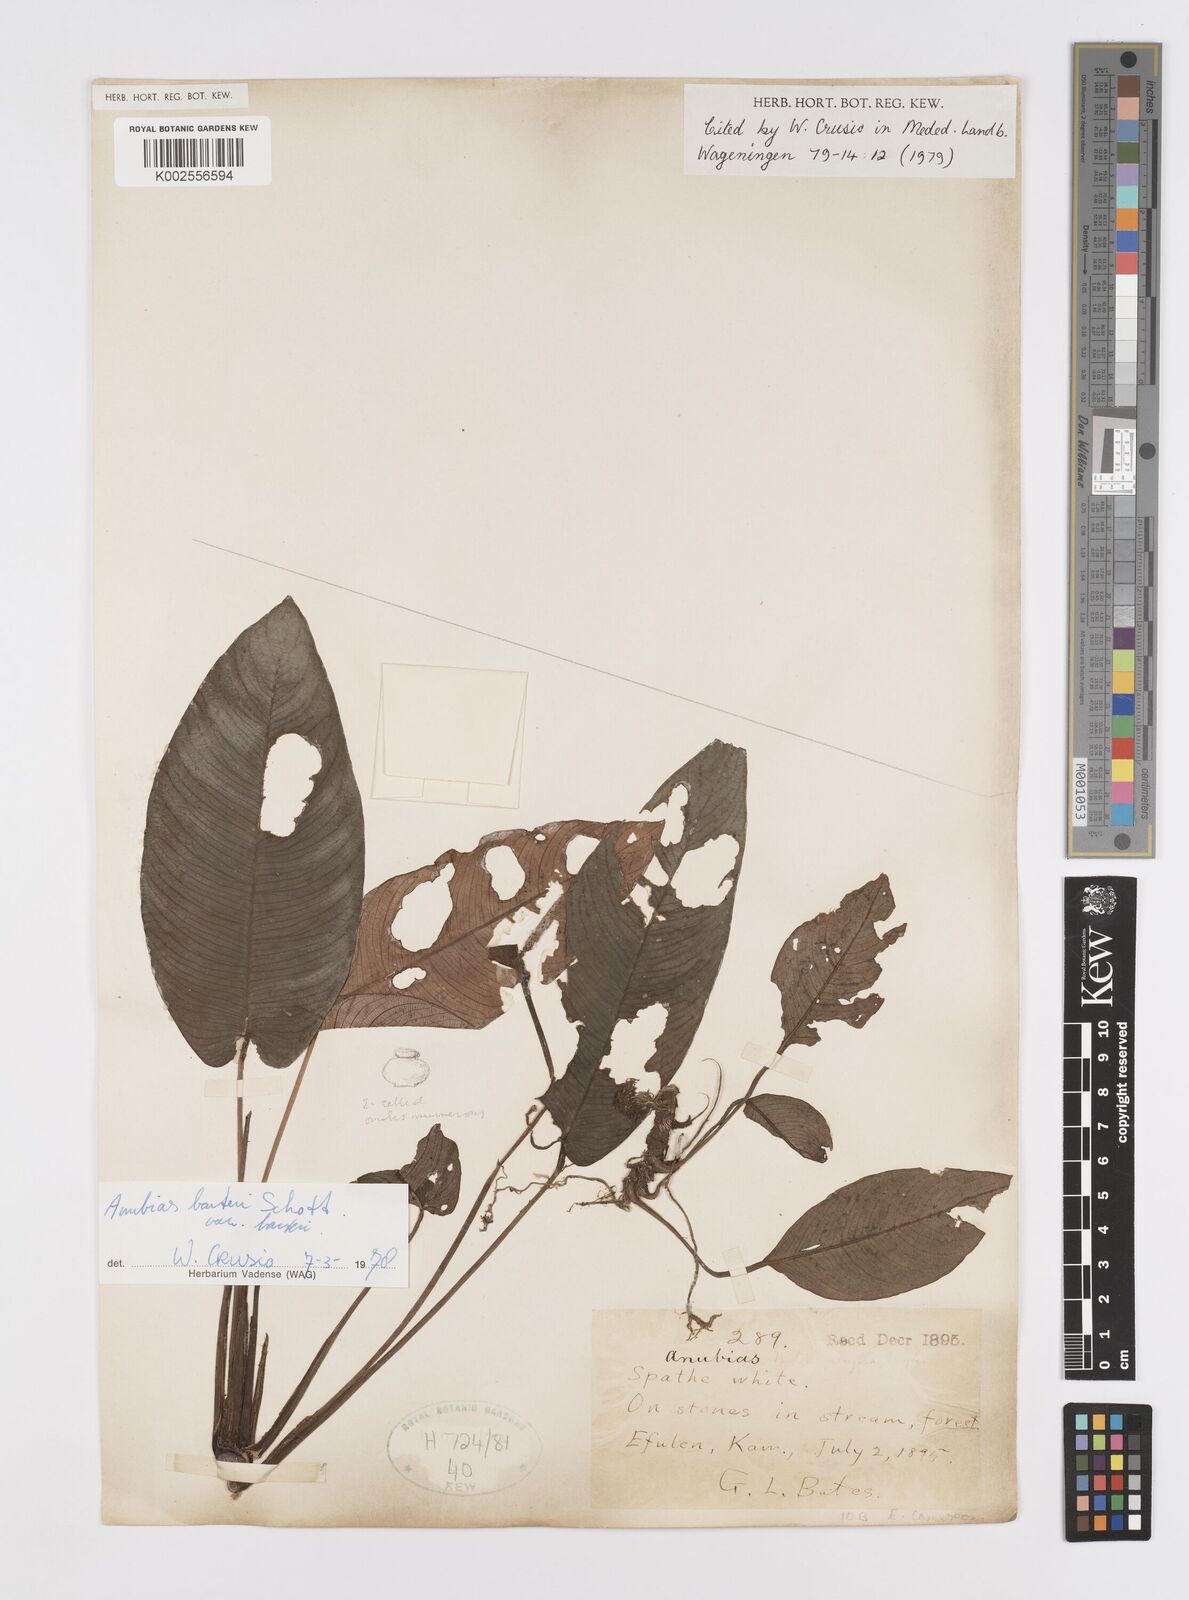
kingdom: Plantae
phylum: Tracheophyta
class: Liliopsida
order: Alismatales
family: Araceae
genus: Anubias
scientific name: Anubias barteri
